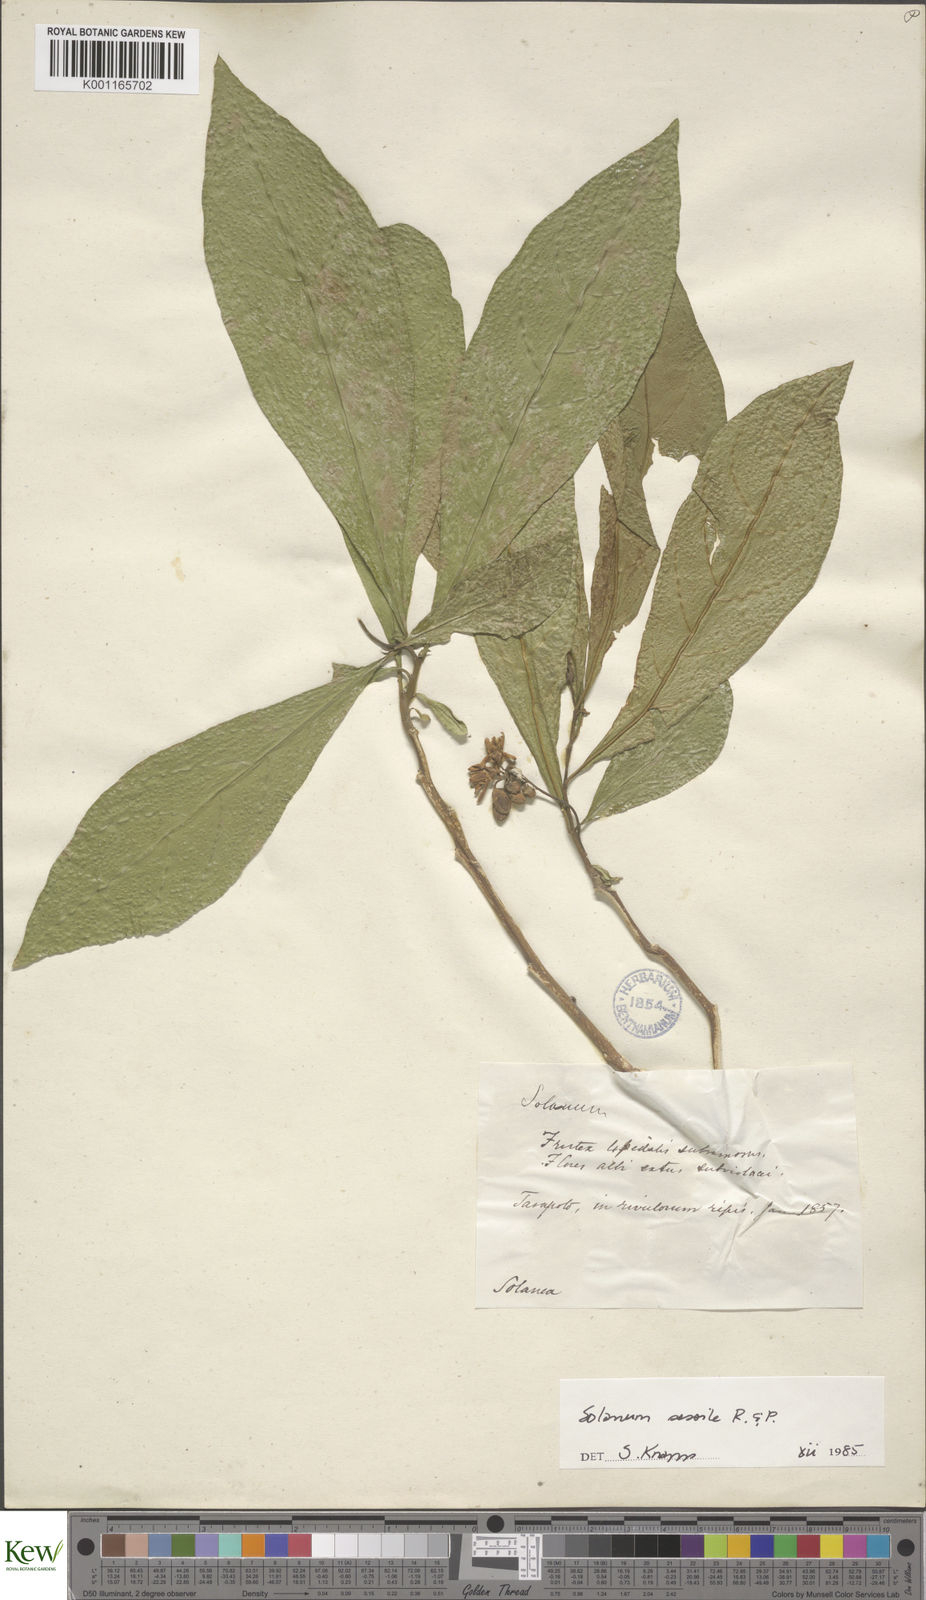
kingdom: Plantae
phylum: Tracheophyta
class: Magnoliopsida
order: Solanales
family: Solanaceae
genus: Solanum
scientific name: Solanum sessile
